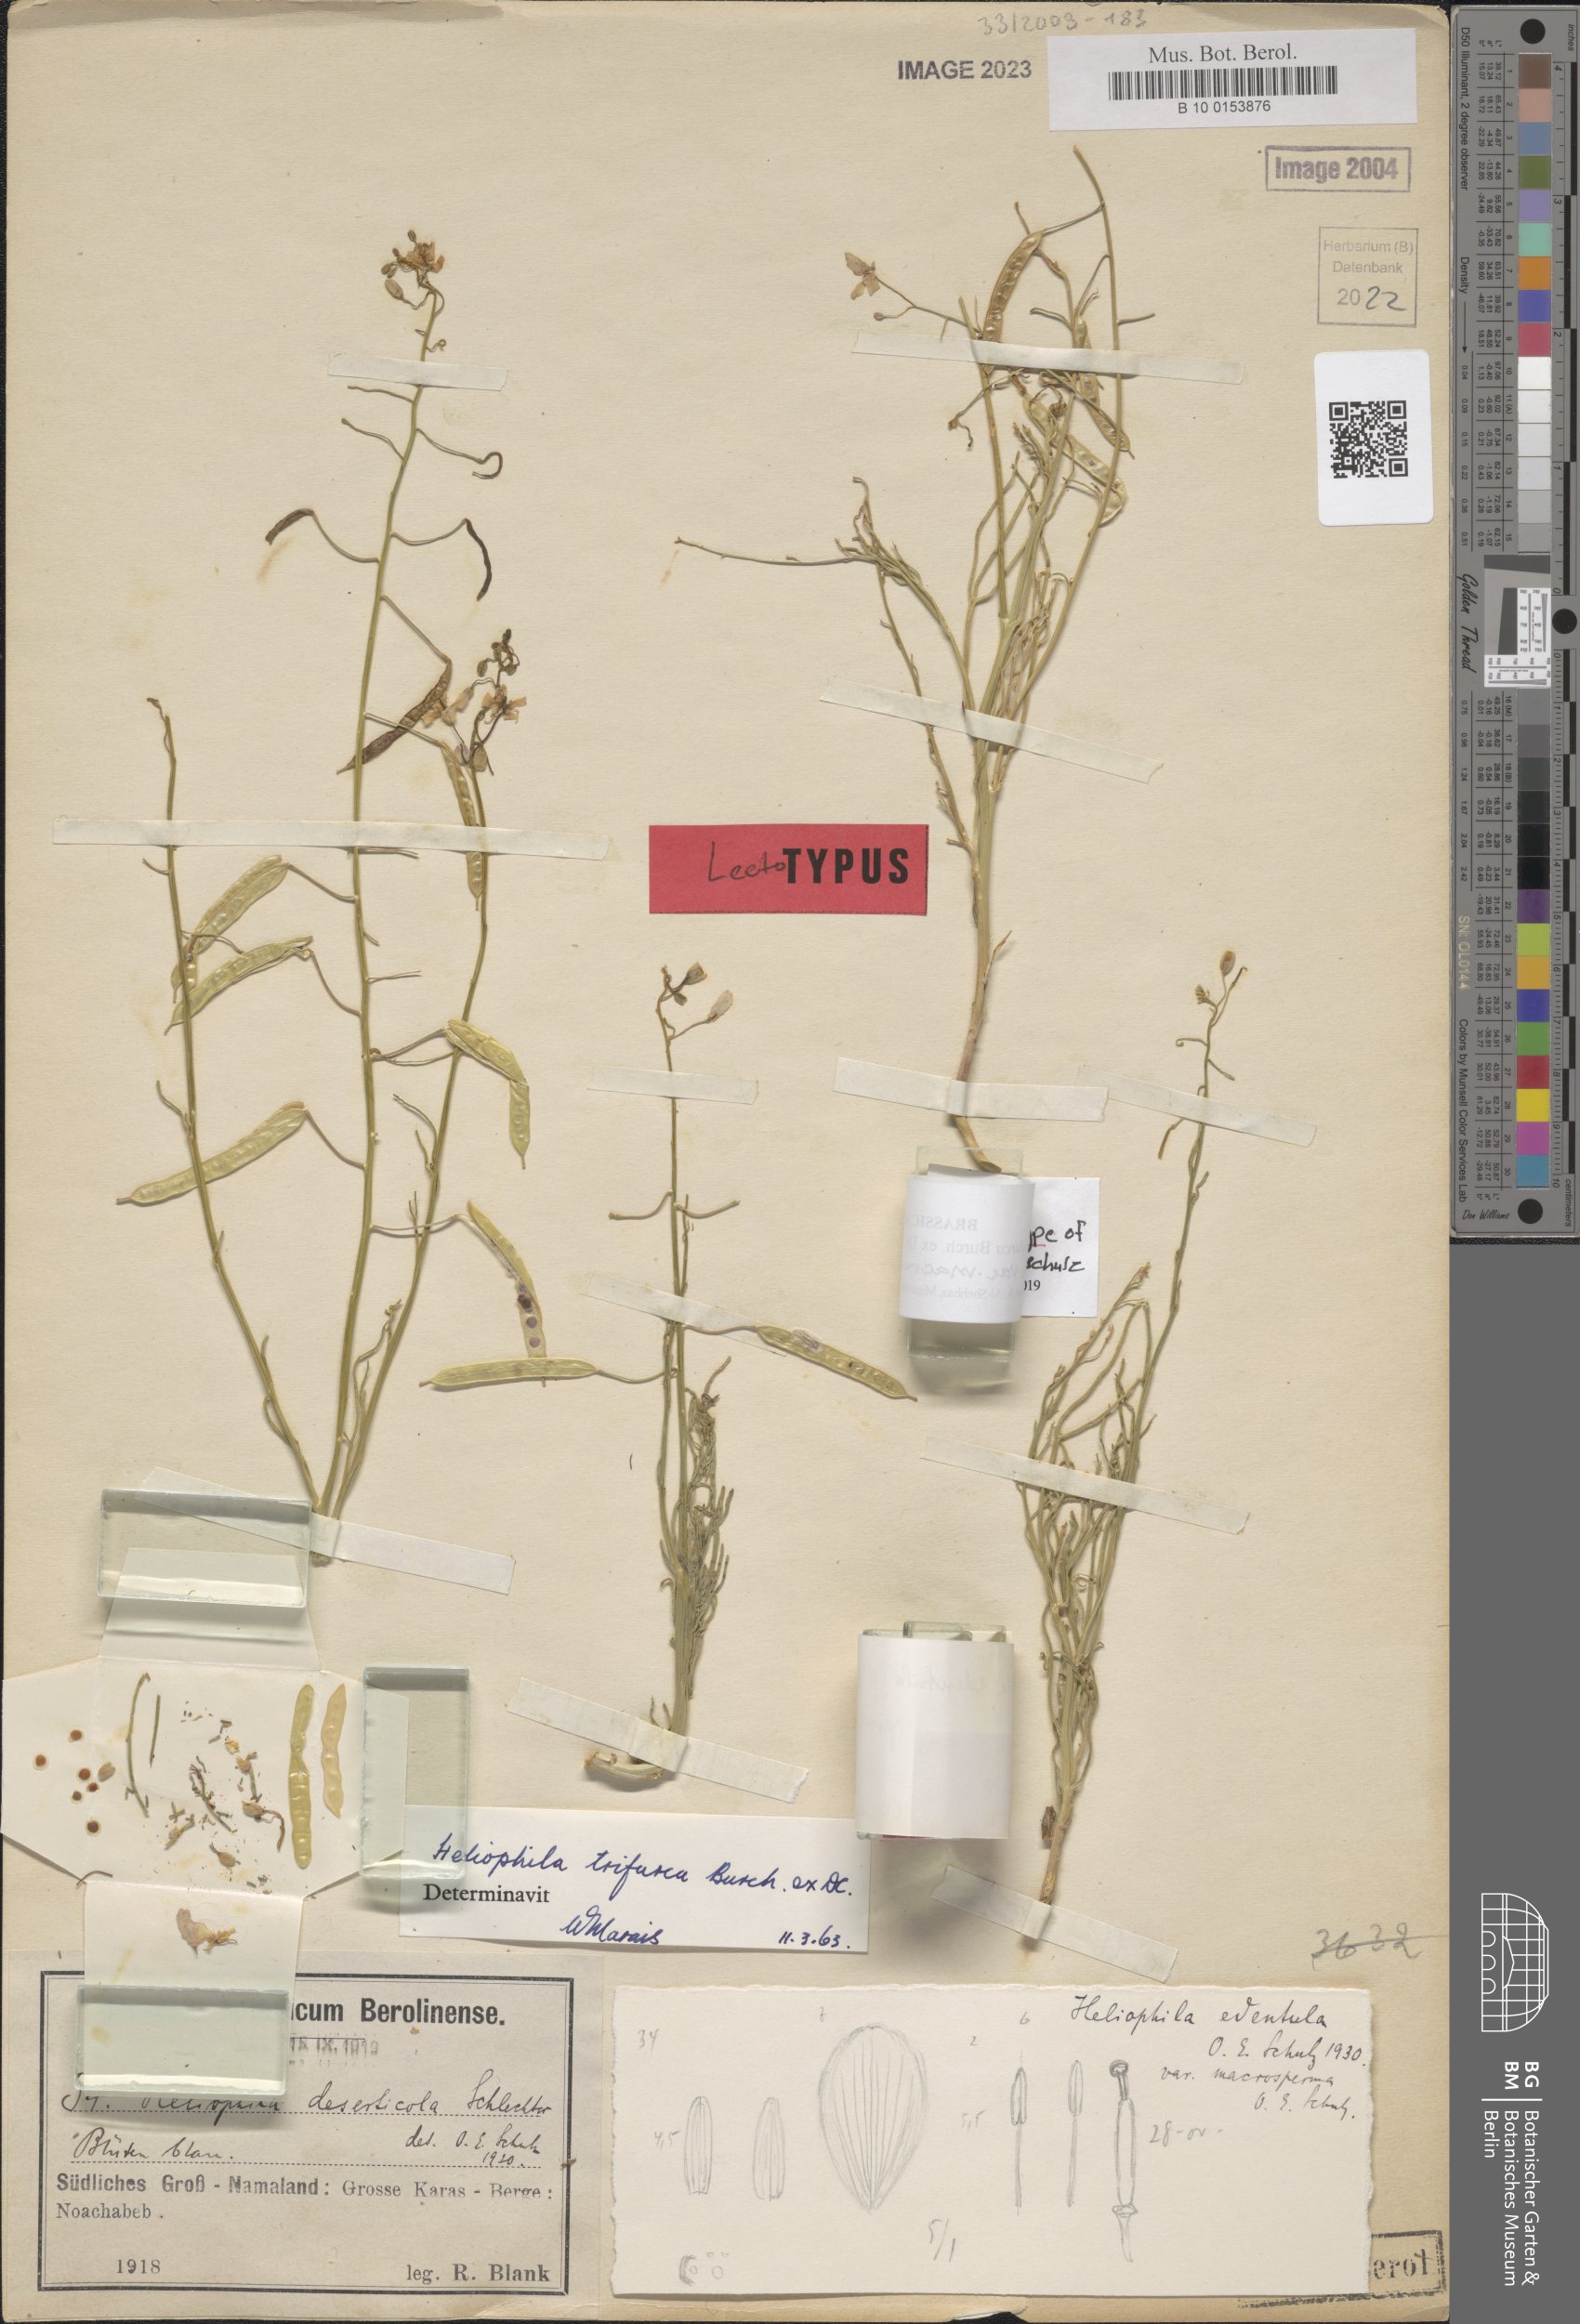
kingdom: Plantae
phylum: Tracheophyta
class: Magnoliopsida
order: Brassicales
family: Brassicaceae
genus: Heliophila
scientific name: Heliophila trifurca
